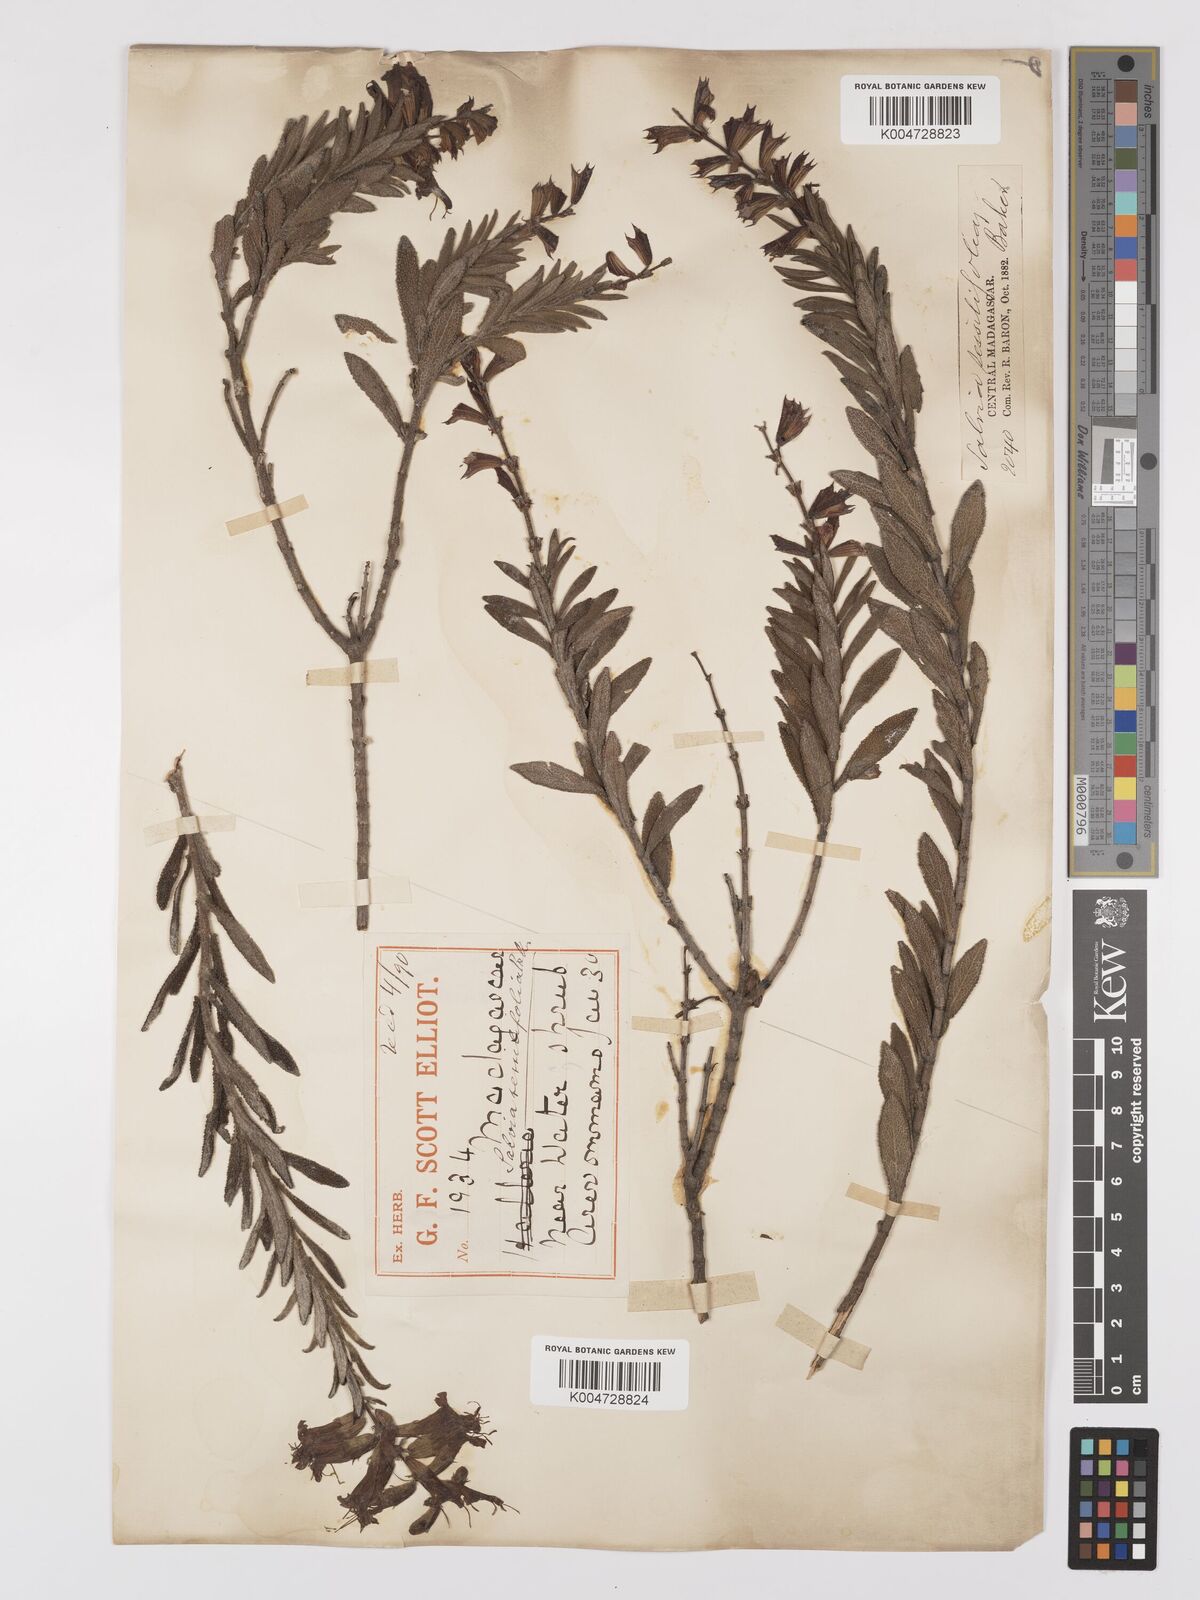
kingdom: Plantae
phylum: Tracheophyta
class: Magnoliopsida
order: Lamiales
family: Lamiaceae
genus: Salvia
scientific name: Salvia sessilifolia
